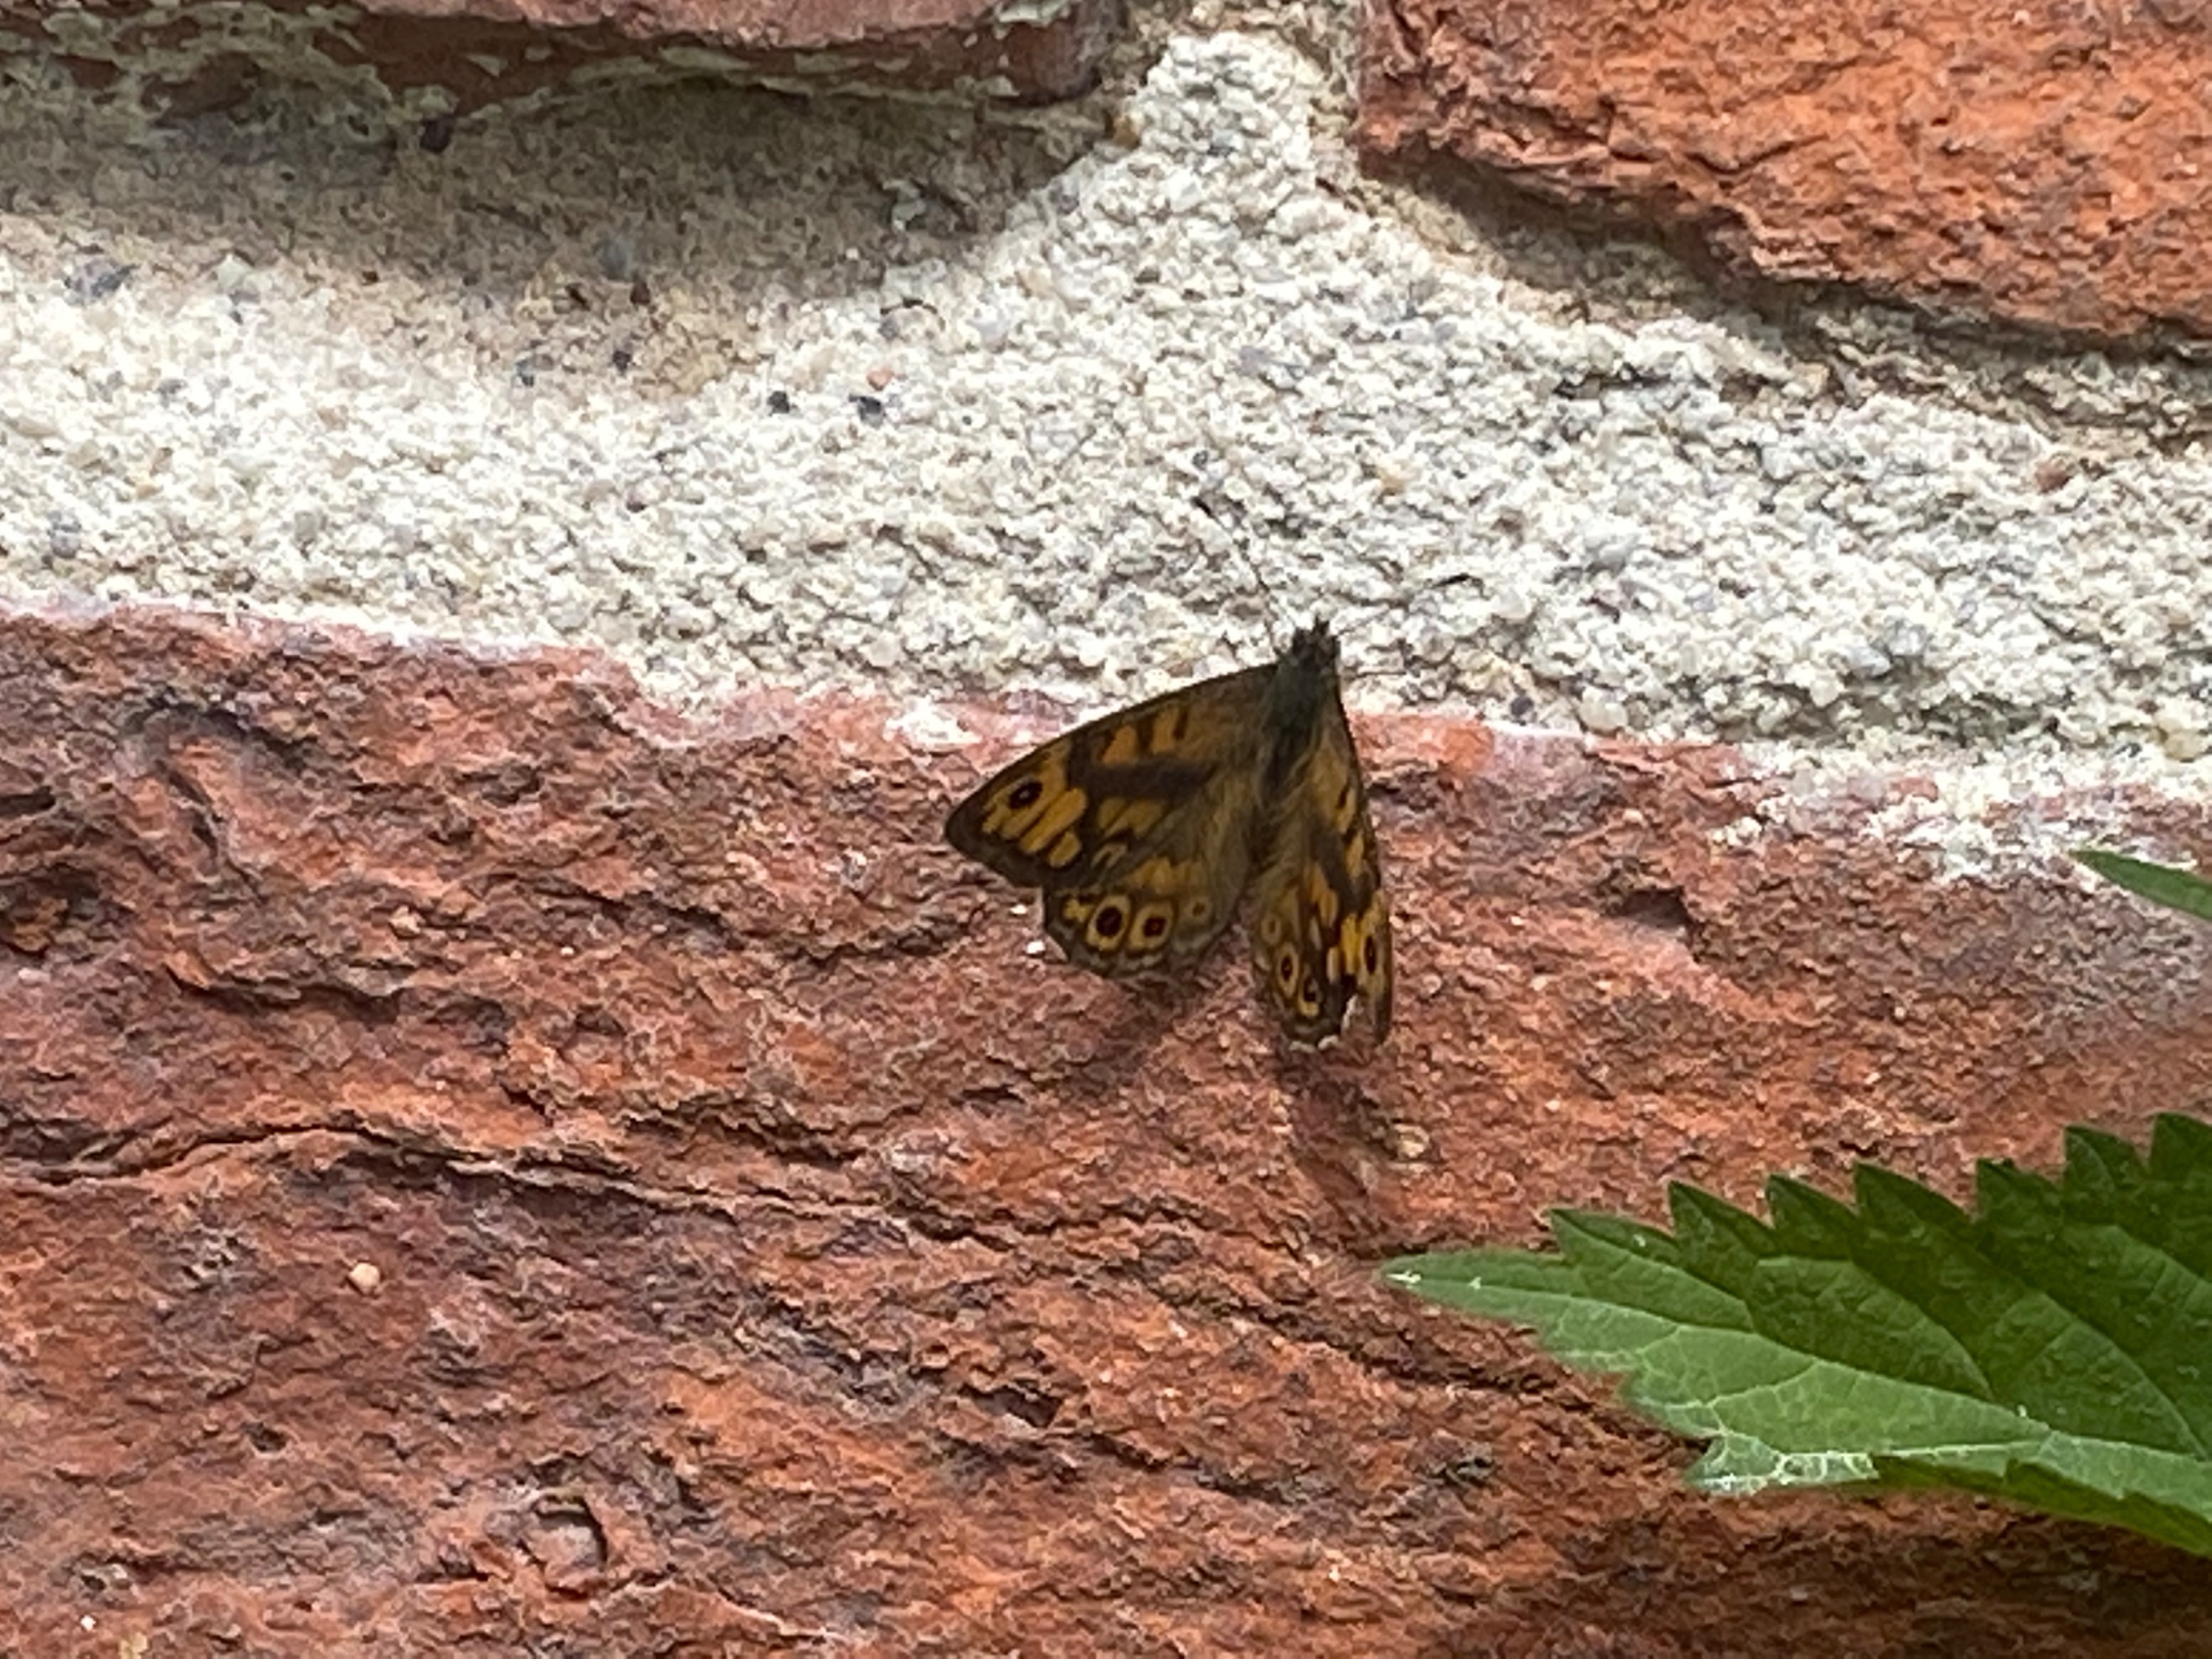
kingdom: Animalia
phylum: Arthropoda
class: Insecta
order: Lepidoptera
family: Nymphalidae
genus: Pararge
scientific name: Pararge Lasiommata megera
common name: Vejrandøje
